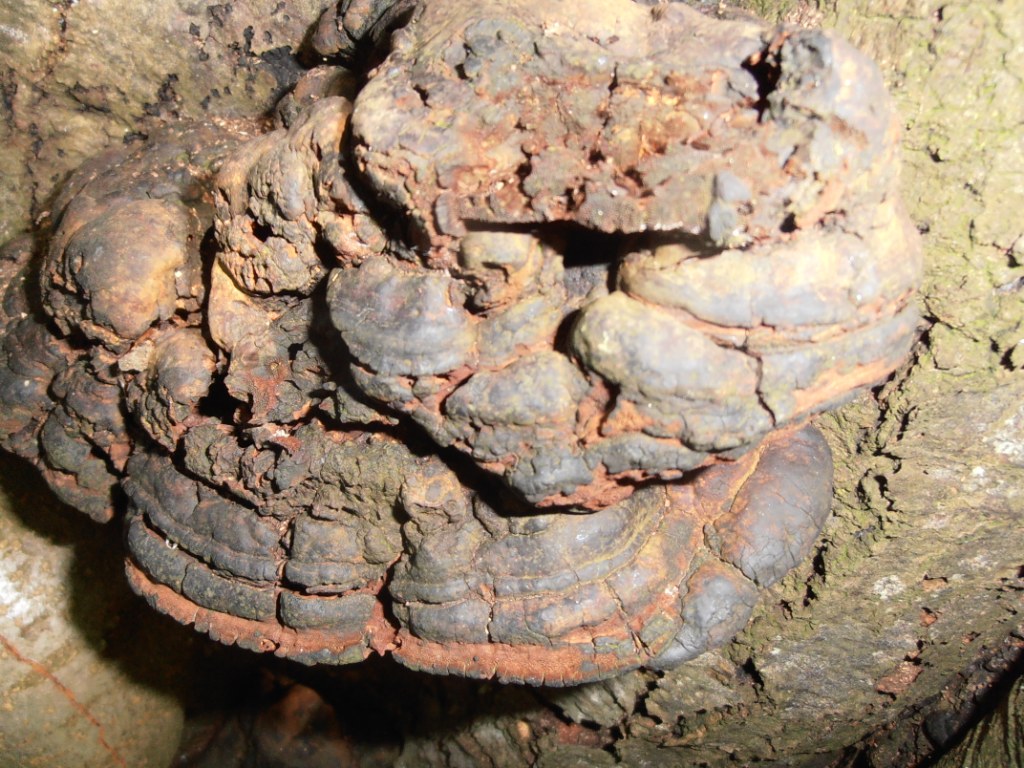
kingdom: Fungi
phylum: Basidiomycota
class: Agaricomycetes
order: Polyporales
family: Polyporaceae
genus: Ganoderma
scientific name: Ganoderma pfeifferi
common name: kobberrød lakporesvamp
